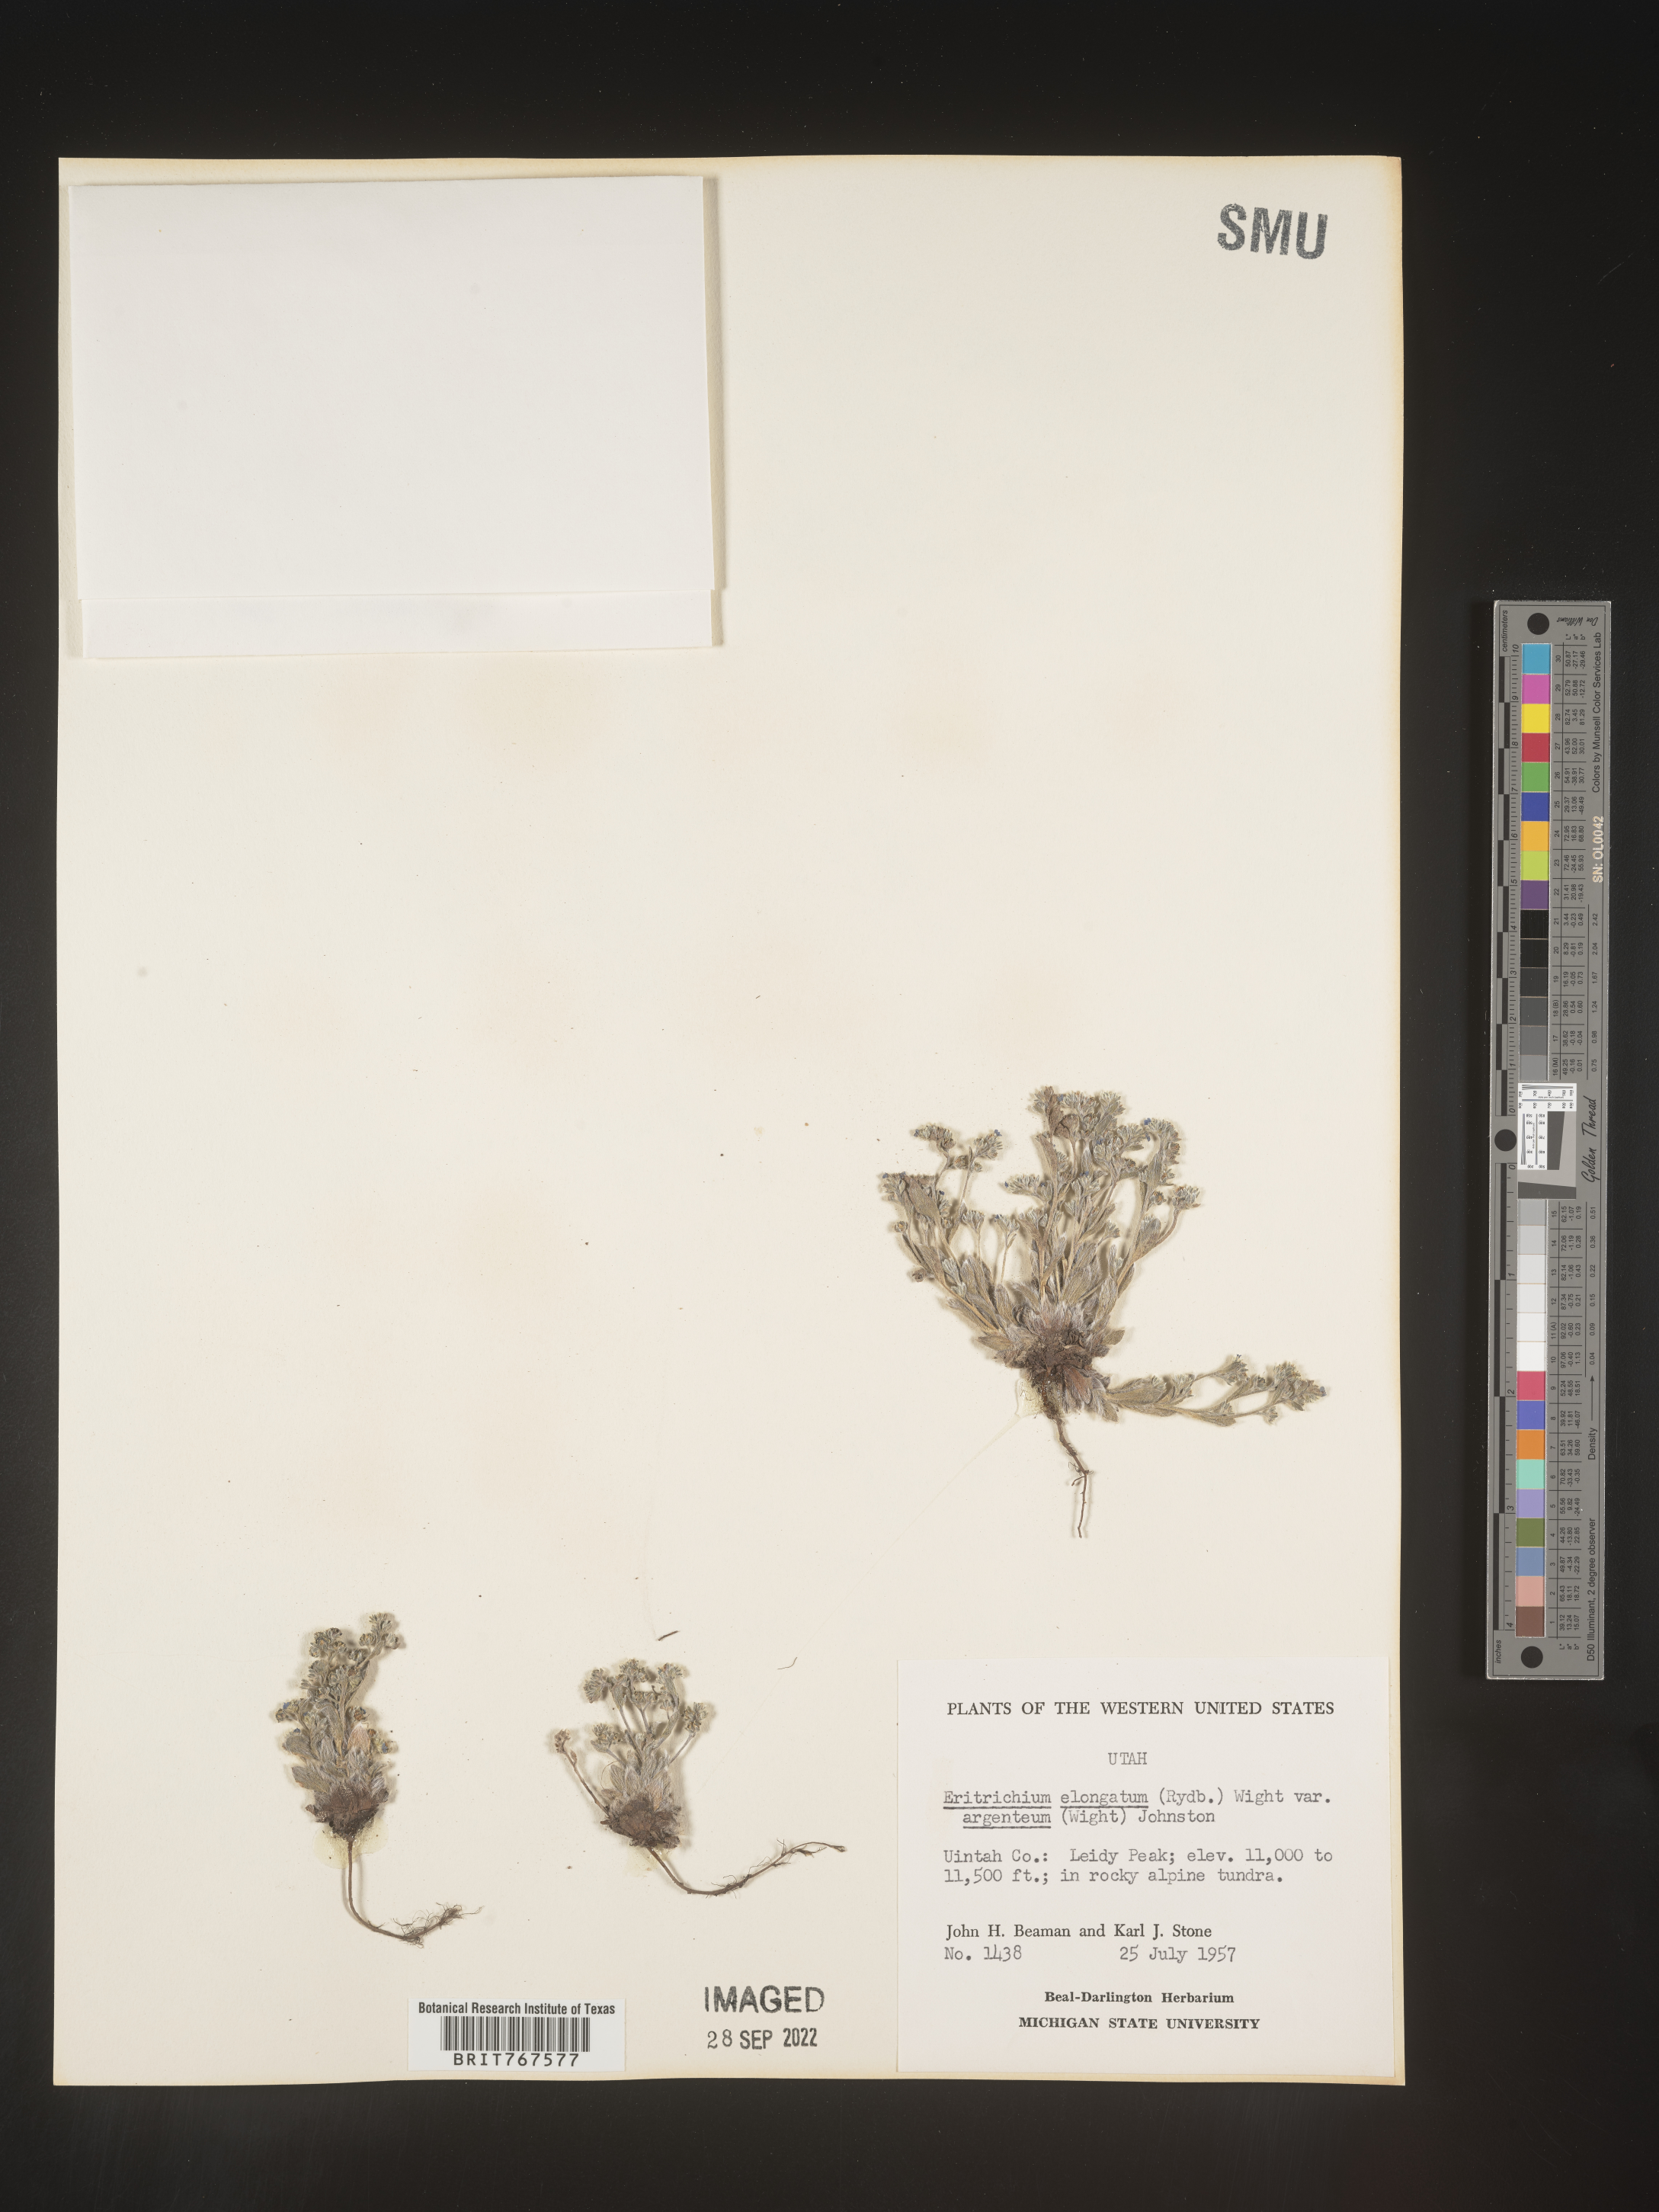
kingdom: Plantae
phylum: Tracheophyta
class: Magnoliopsida
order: Boraginales
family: Boraginaceae
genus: Eritrichium
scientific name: Eritrichium
